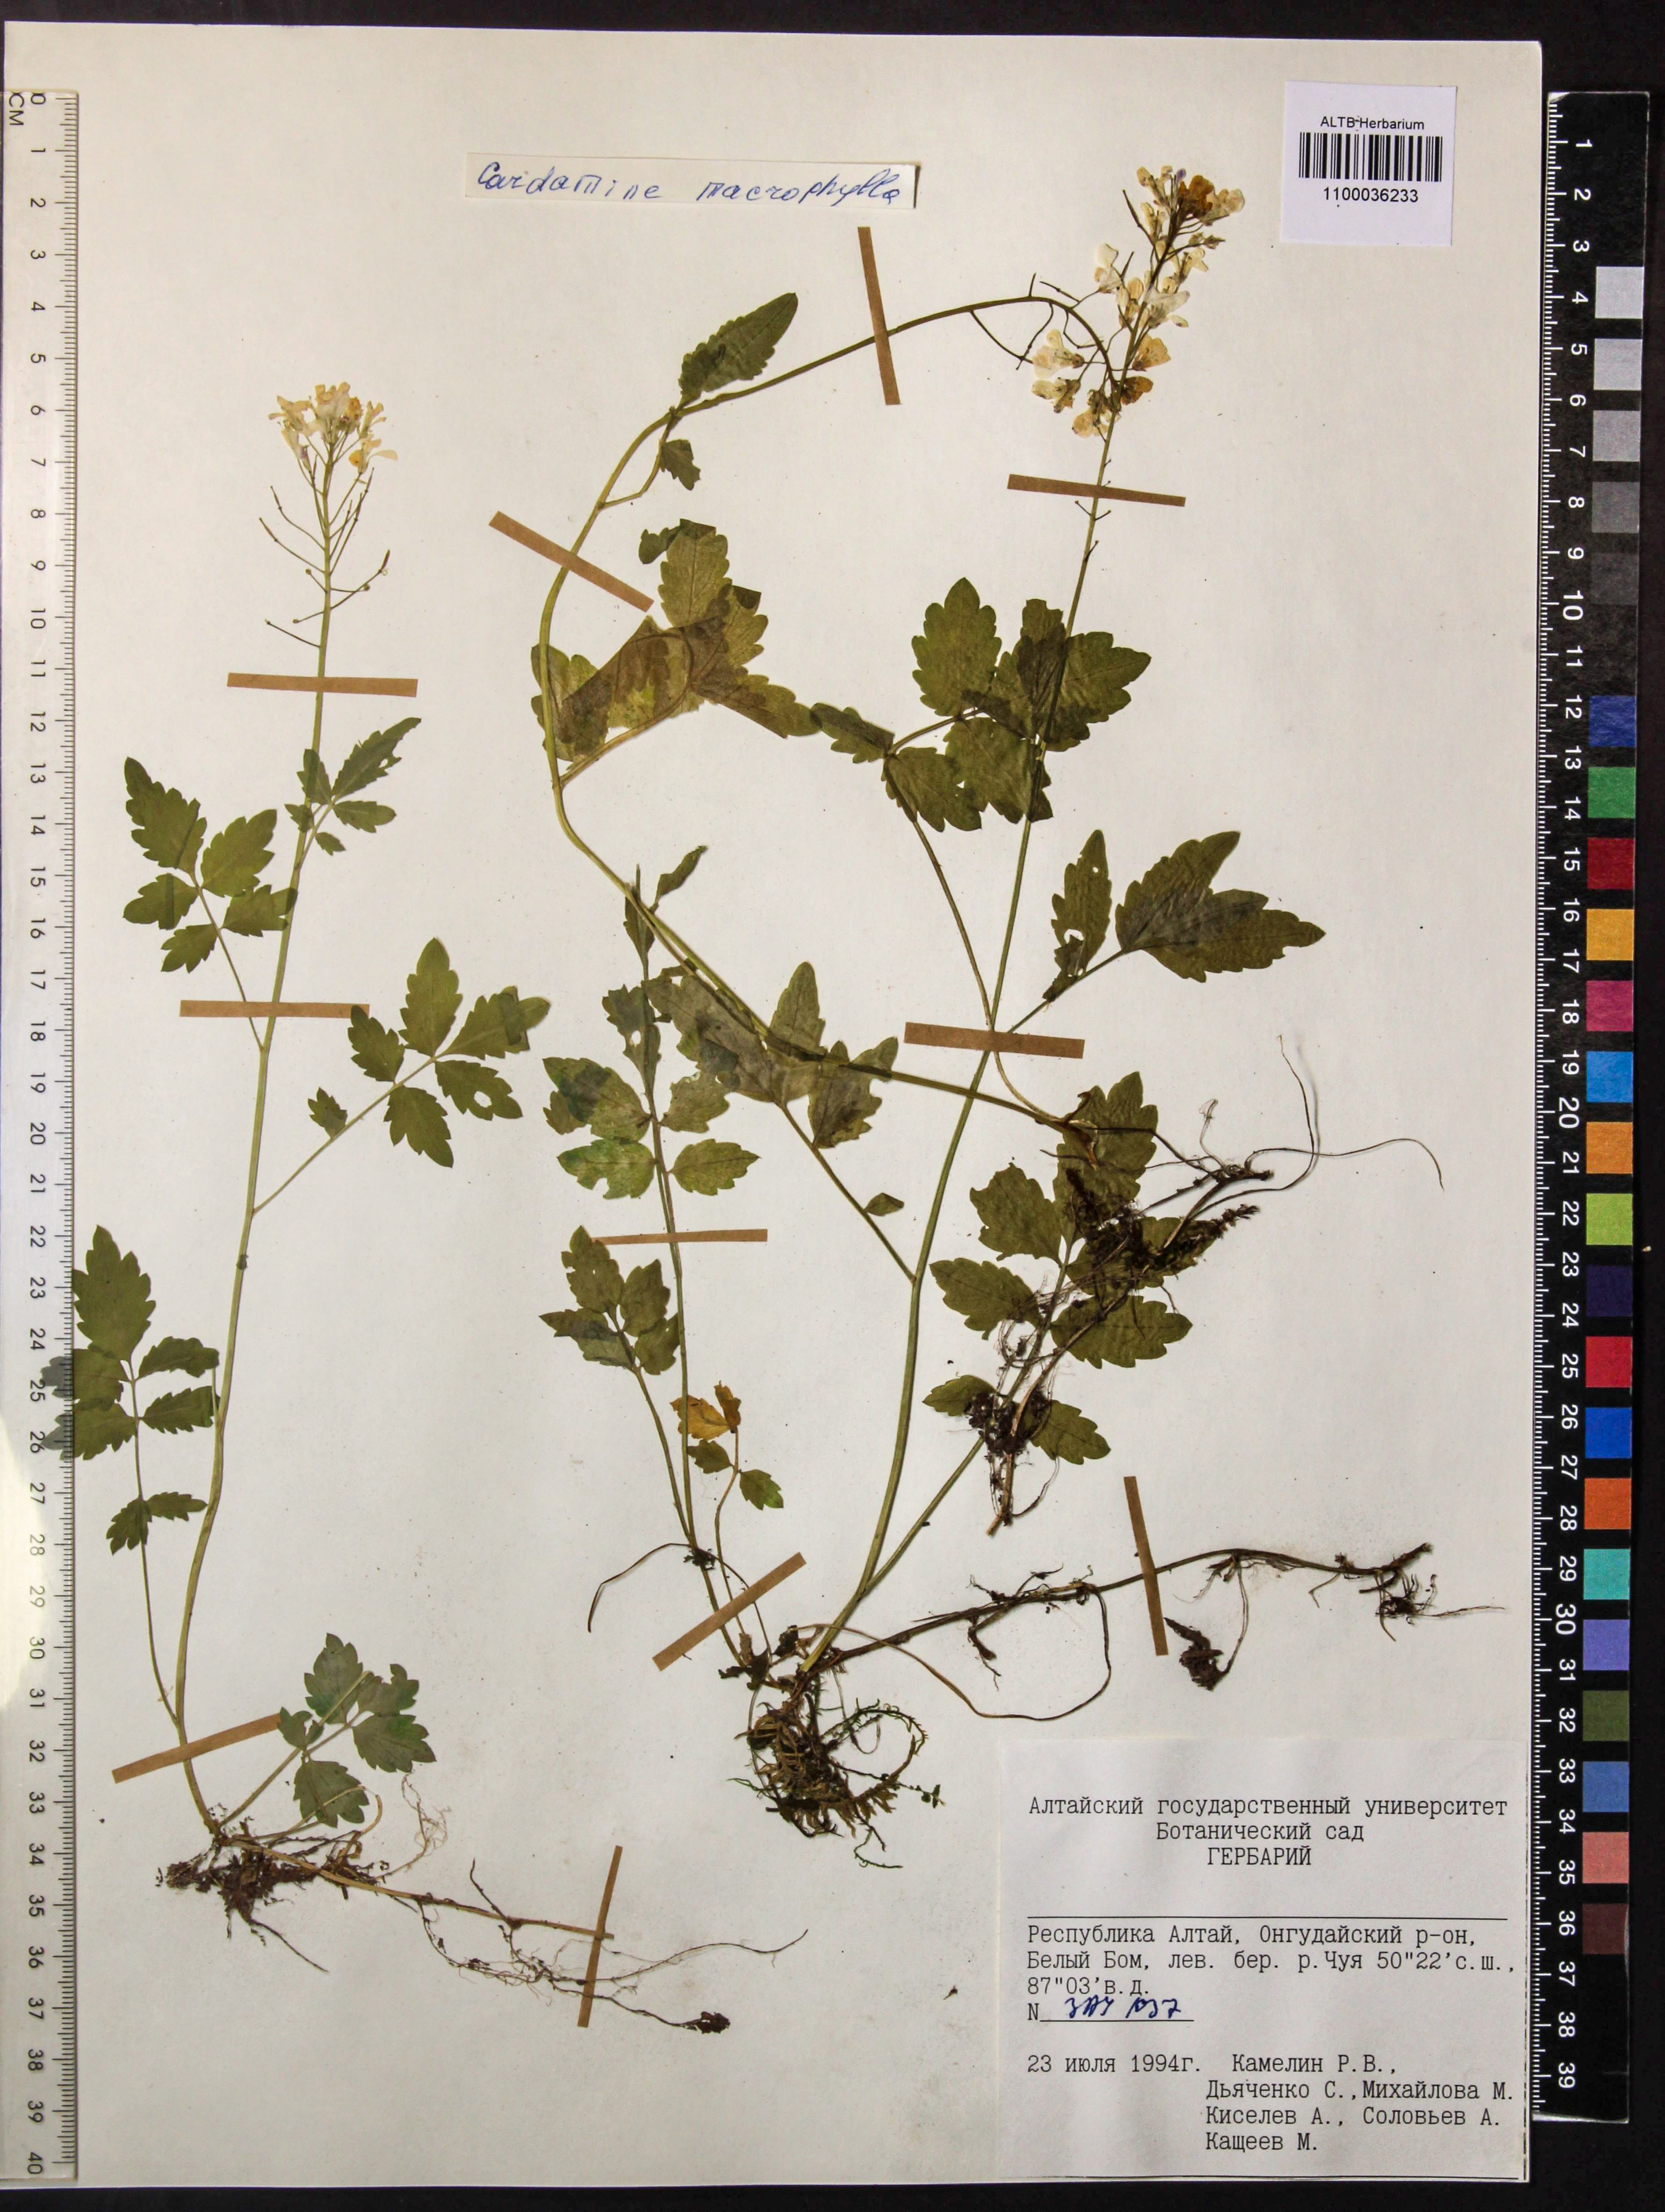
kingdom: Plantae
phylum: Tracheophyta
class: Magnoliopsida
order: Brassicales
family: Brassicaceae
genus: Cardamine
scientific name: Cardamine macrophylla
